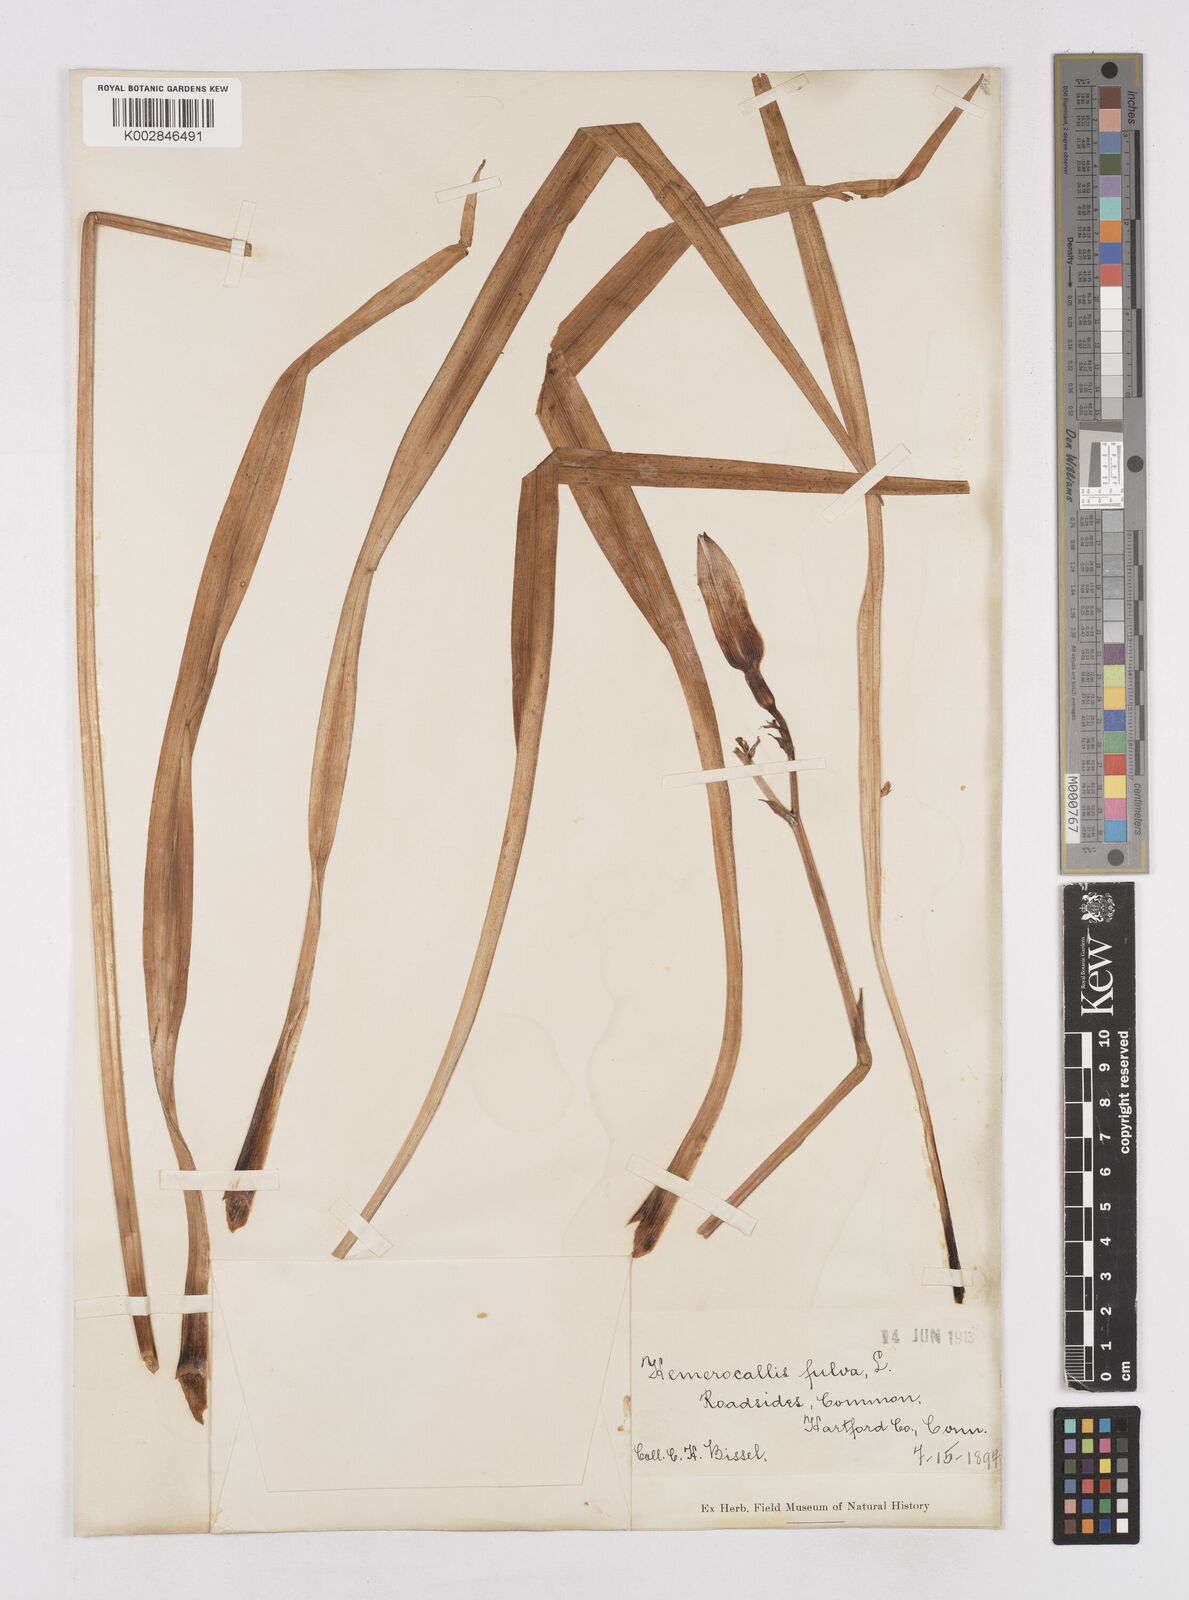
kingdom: Plantae
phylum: Tracheophyta
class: Liliopsida
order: Asparagales
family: Asphodelaceae
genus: Hemerocallis
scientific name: Hemerocallis lilioasphodelus
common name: Yellow day-lily
